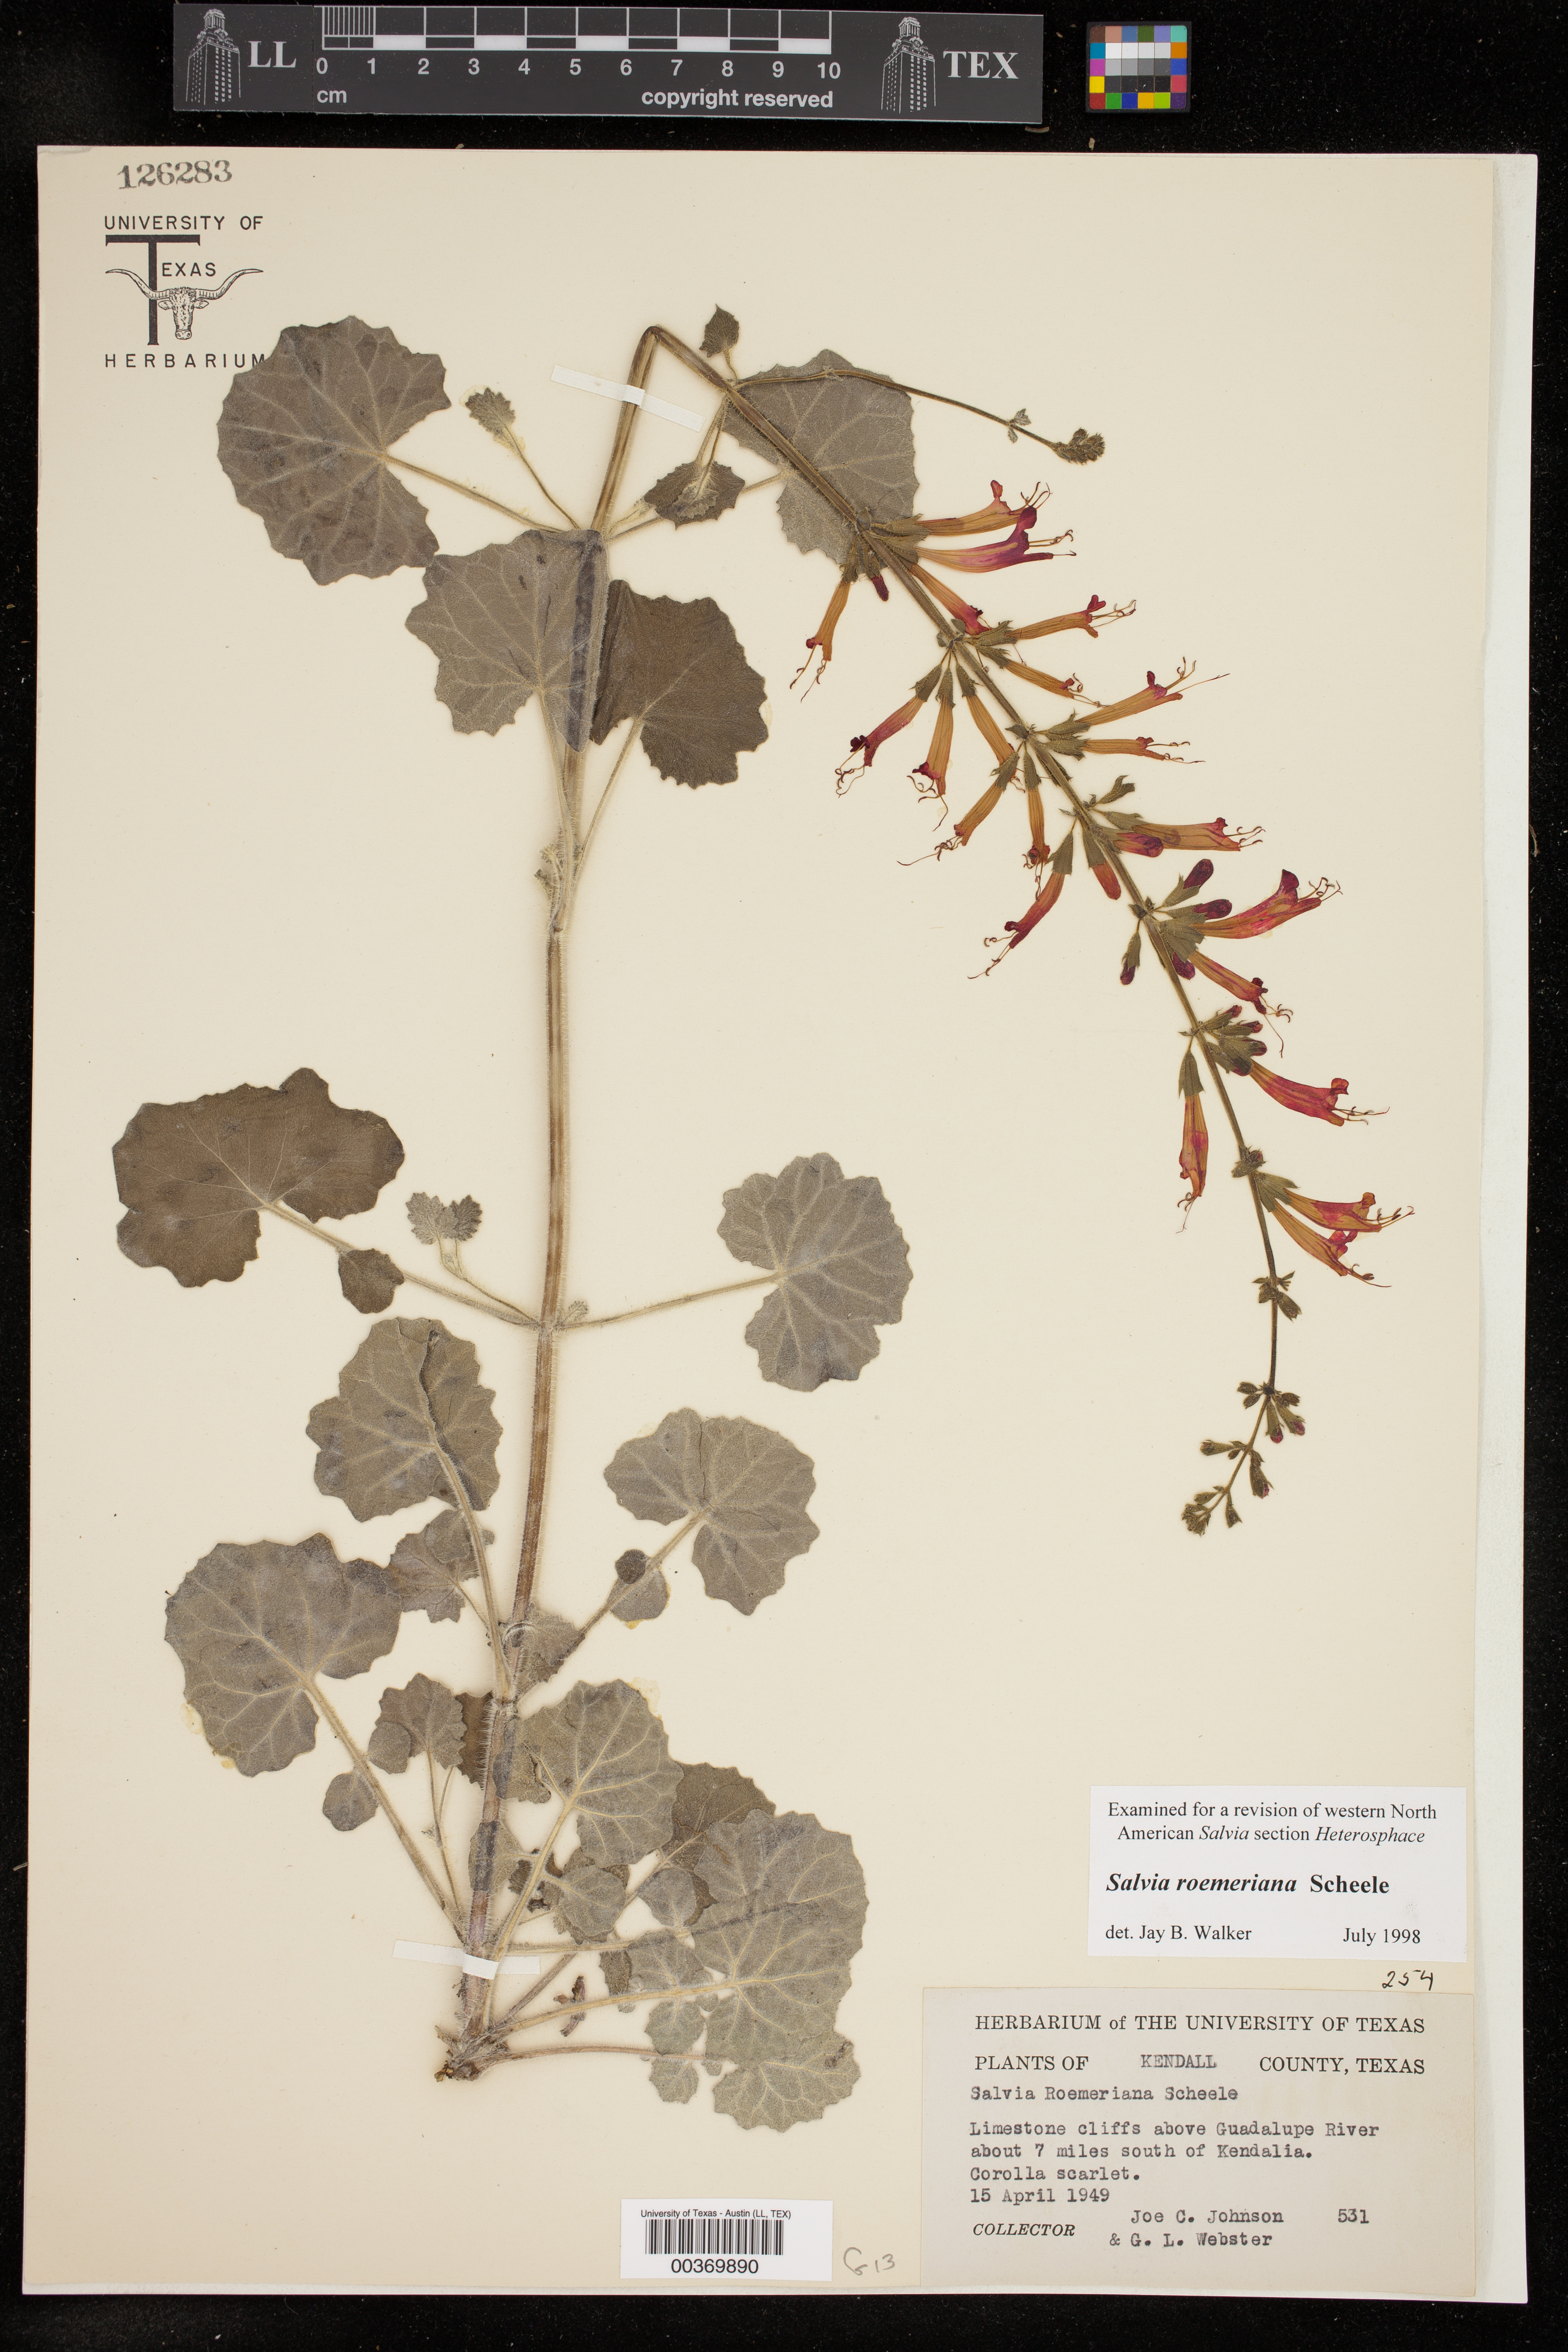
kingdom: Plantae
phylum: Tracheophyta
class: Magnoliopsida
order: Lamiales
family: Lamiaceae
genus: Salvia
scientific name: Salvia roemeriana
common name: Cedar sage
